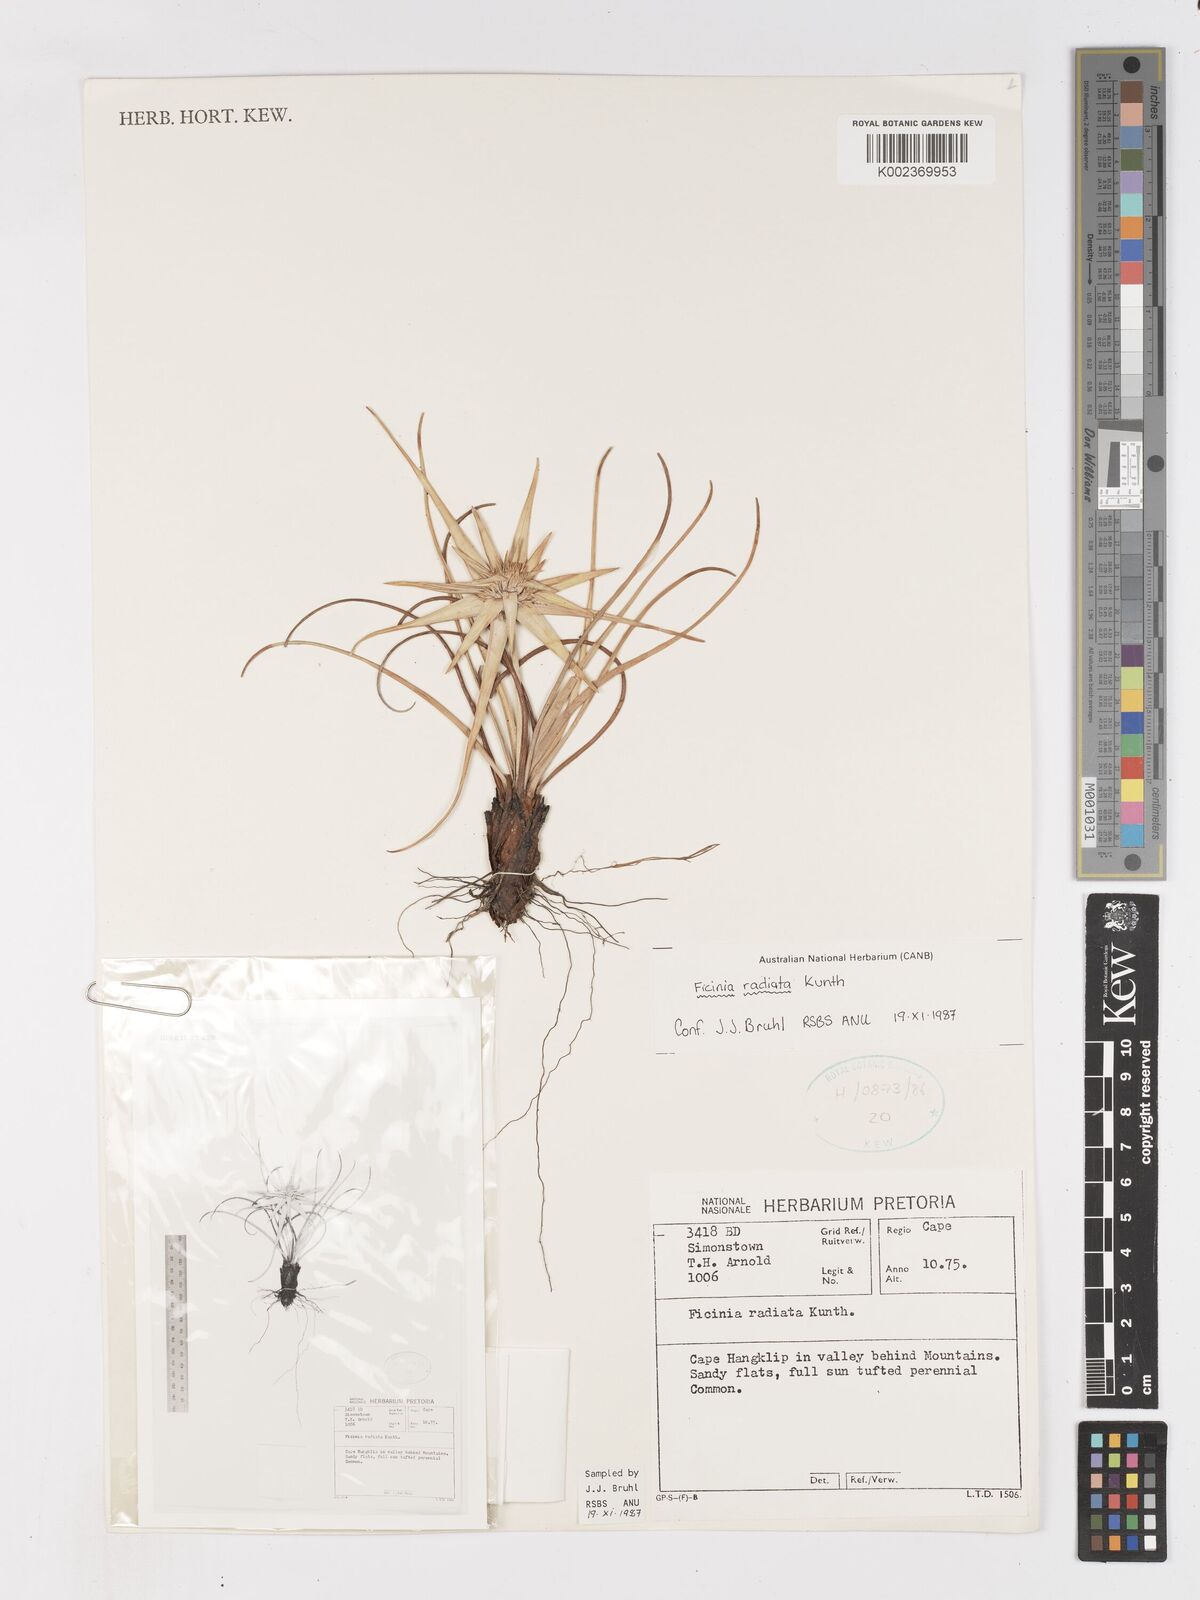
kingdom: Plantae
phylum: Tracheophyta
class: Liliopsida
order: Poales
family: Cyperaceae
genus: Ficinia
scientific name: Ficinia radiata
